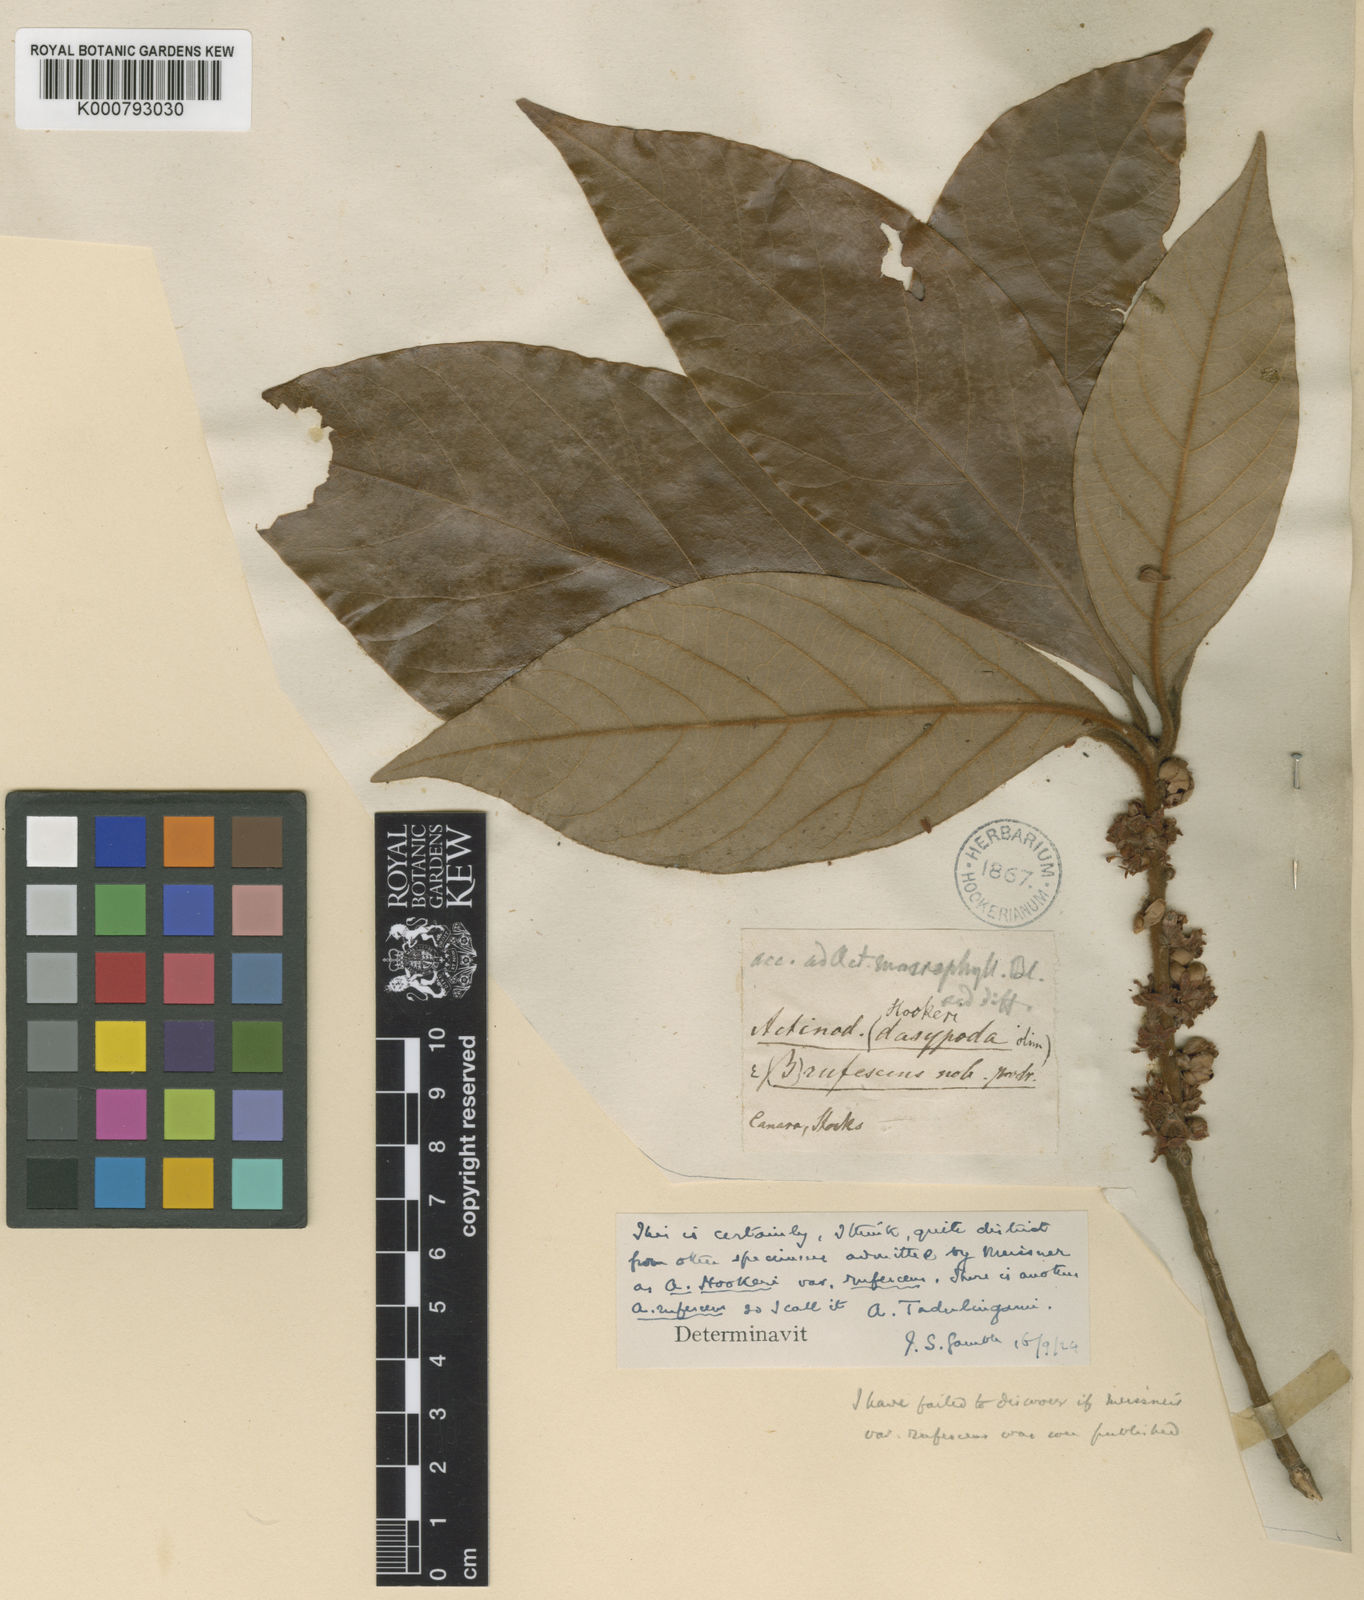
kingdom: Plantae
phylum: Tracheophyta
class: Magnoliopsida
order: Laurales
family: Lauraceae
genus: Actinodaphne
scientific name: Actinodaphne tadulingamii
